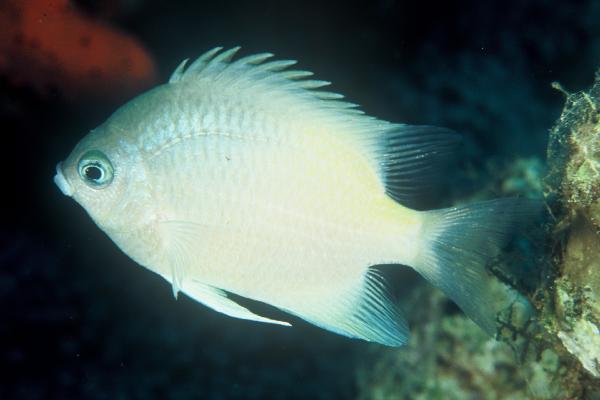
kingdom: Animalia
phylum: Chordata
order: Perciformes
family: Pomacentridae
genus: Amblyglyphidodon
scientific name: Amblyglyphidodon flavilatus
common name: Yellowfin damsel
